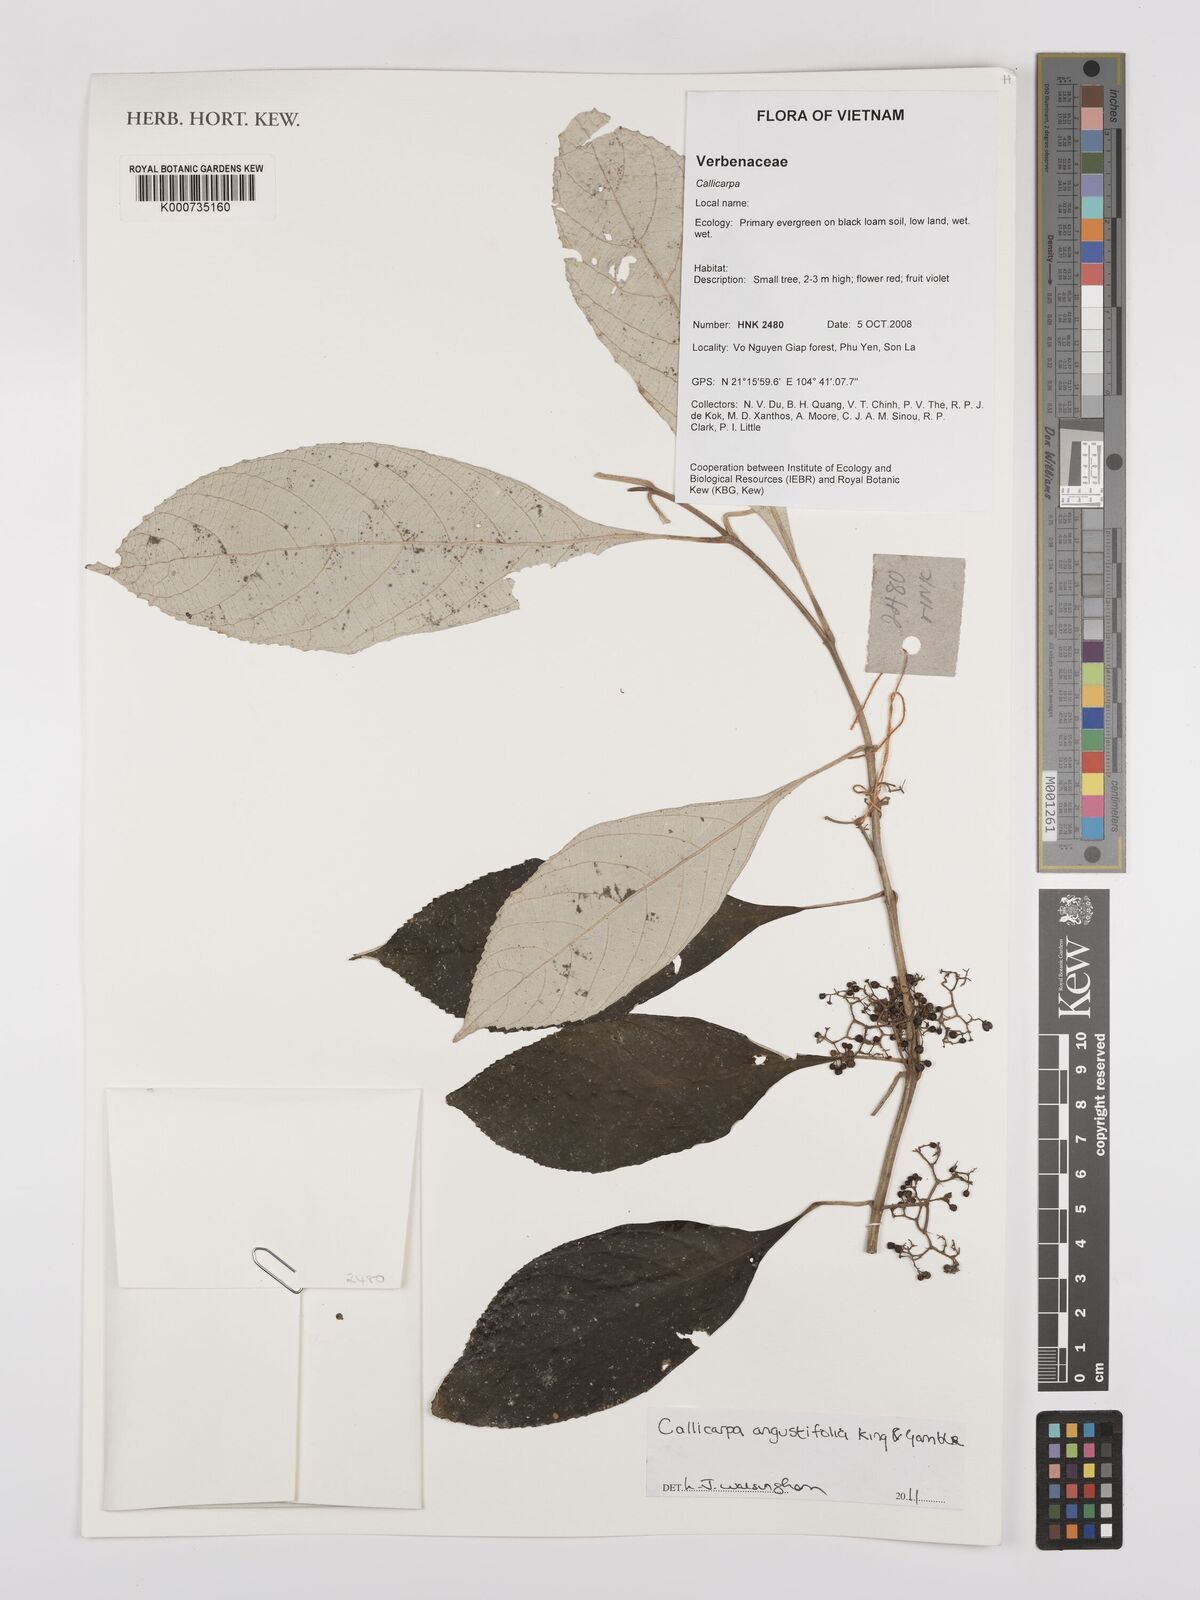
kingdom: Plantae
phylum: Tracheophyta
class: Magnoliopsida
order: Lamiales
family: Lamiaceae
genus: Callicarpa
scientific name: Callicarpa angustifolia
